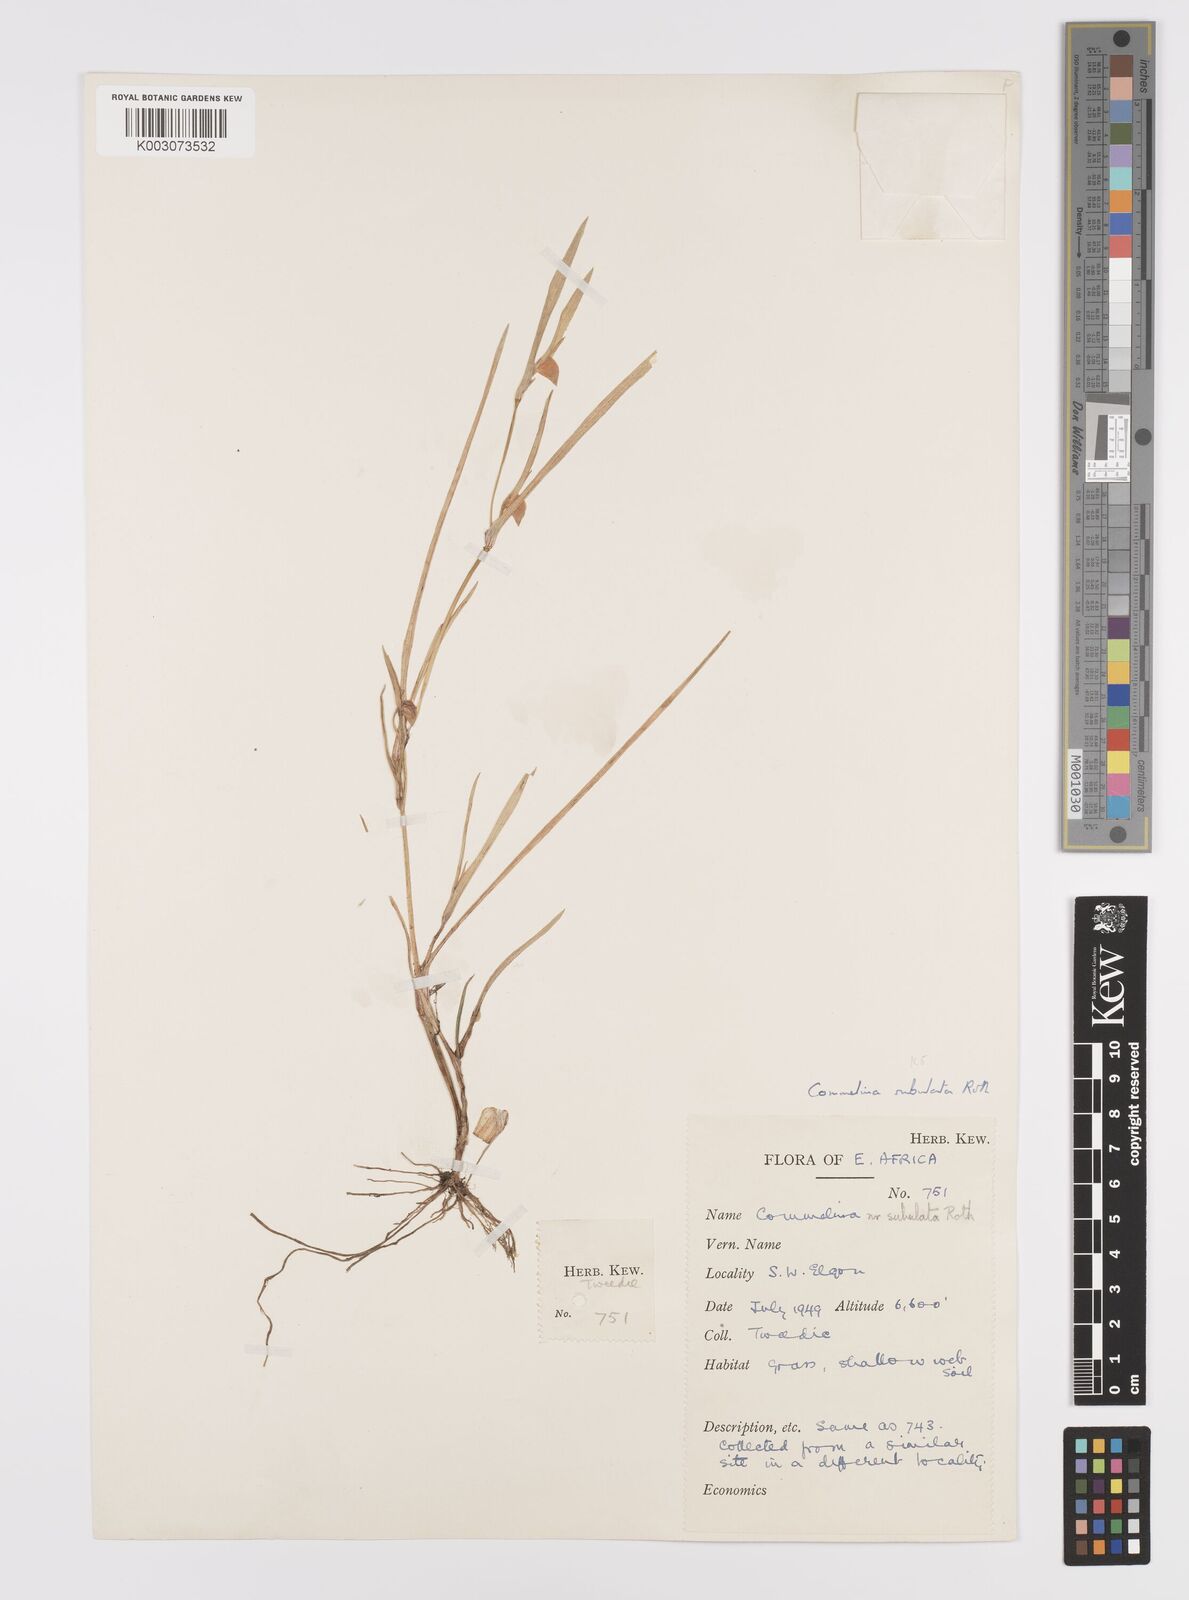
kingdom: Plantae
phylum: Tracheophyta
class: Liliopsida
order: Commelinales
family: Commelinaceae
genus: Commelina
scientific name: Commelina subulata
